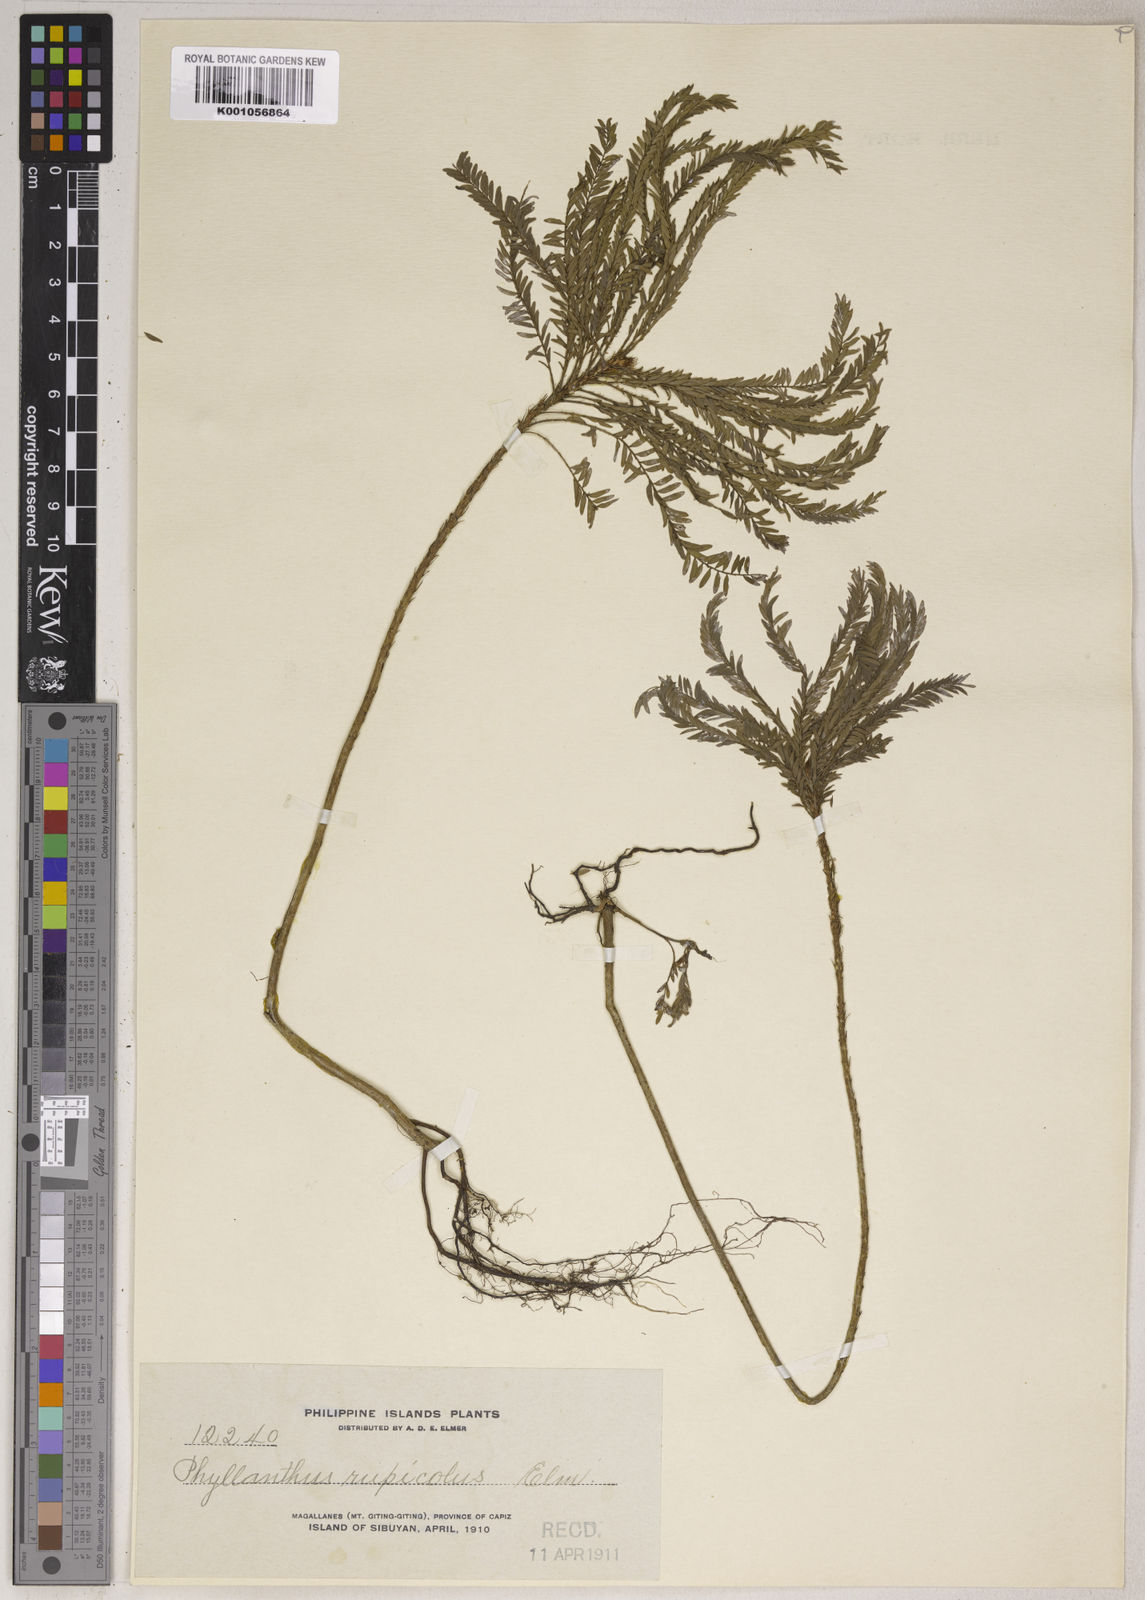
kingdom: Plantae
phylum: Tracheophyta
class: Magnoliopsida
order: Malpighiales
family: Phyllanthaceae
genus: Phyllanthus
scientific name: Phyllanthus rupicola
